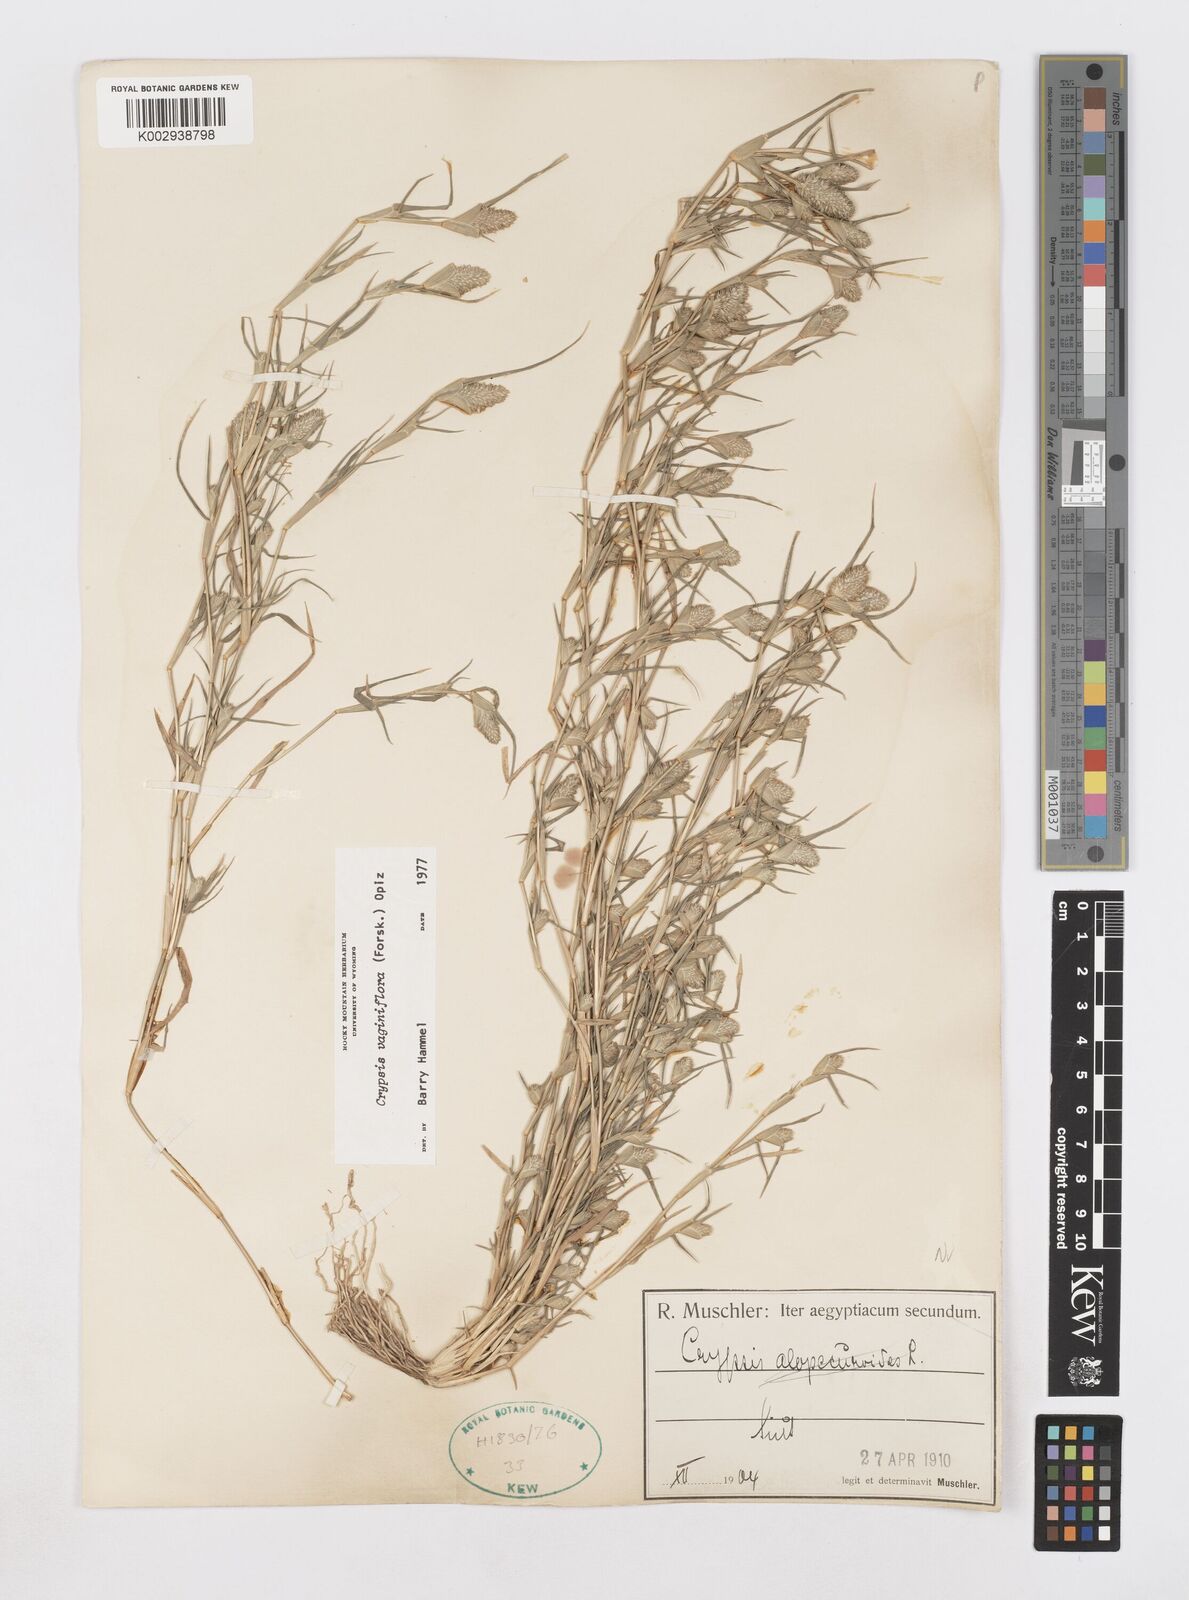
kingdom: Plantae
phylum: Tracheophyta
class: Liliopsida
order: Poales
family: Poaceae
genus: Sporobolus
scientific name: Sporobolus niliacus
